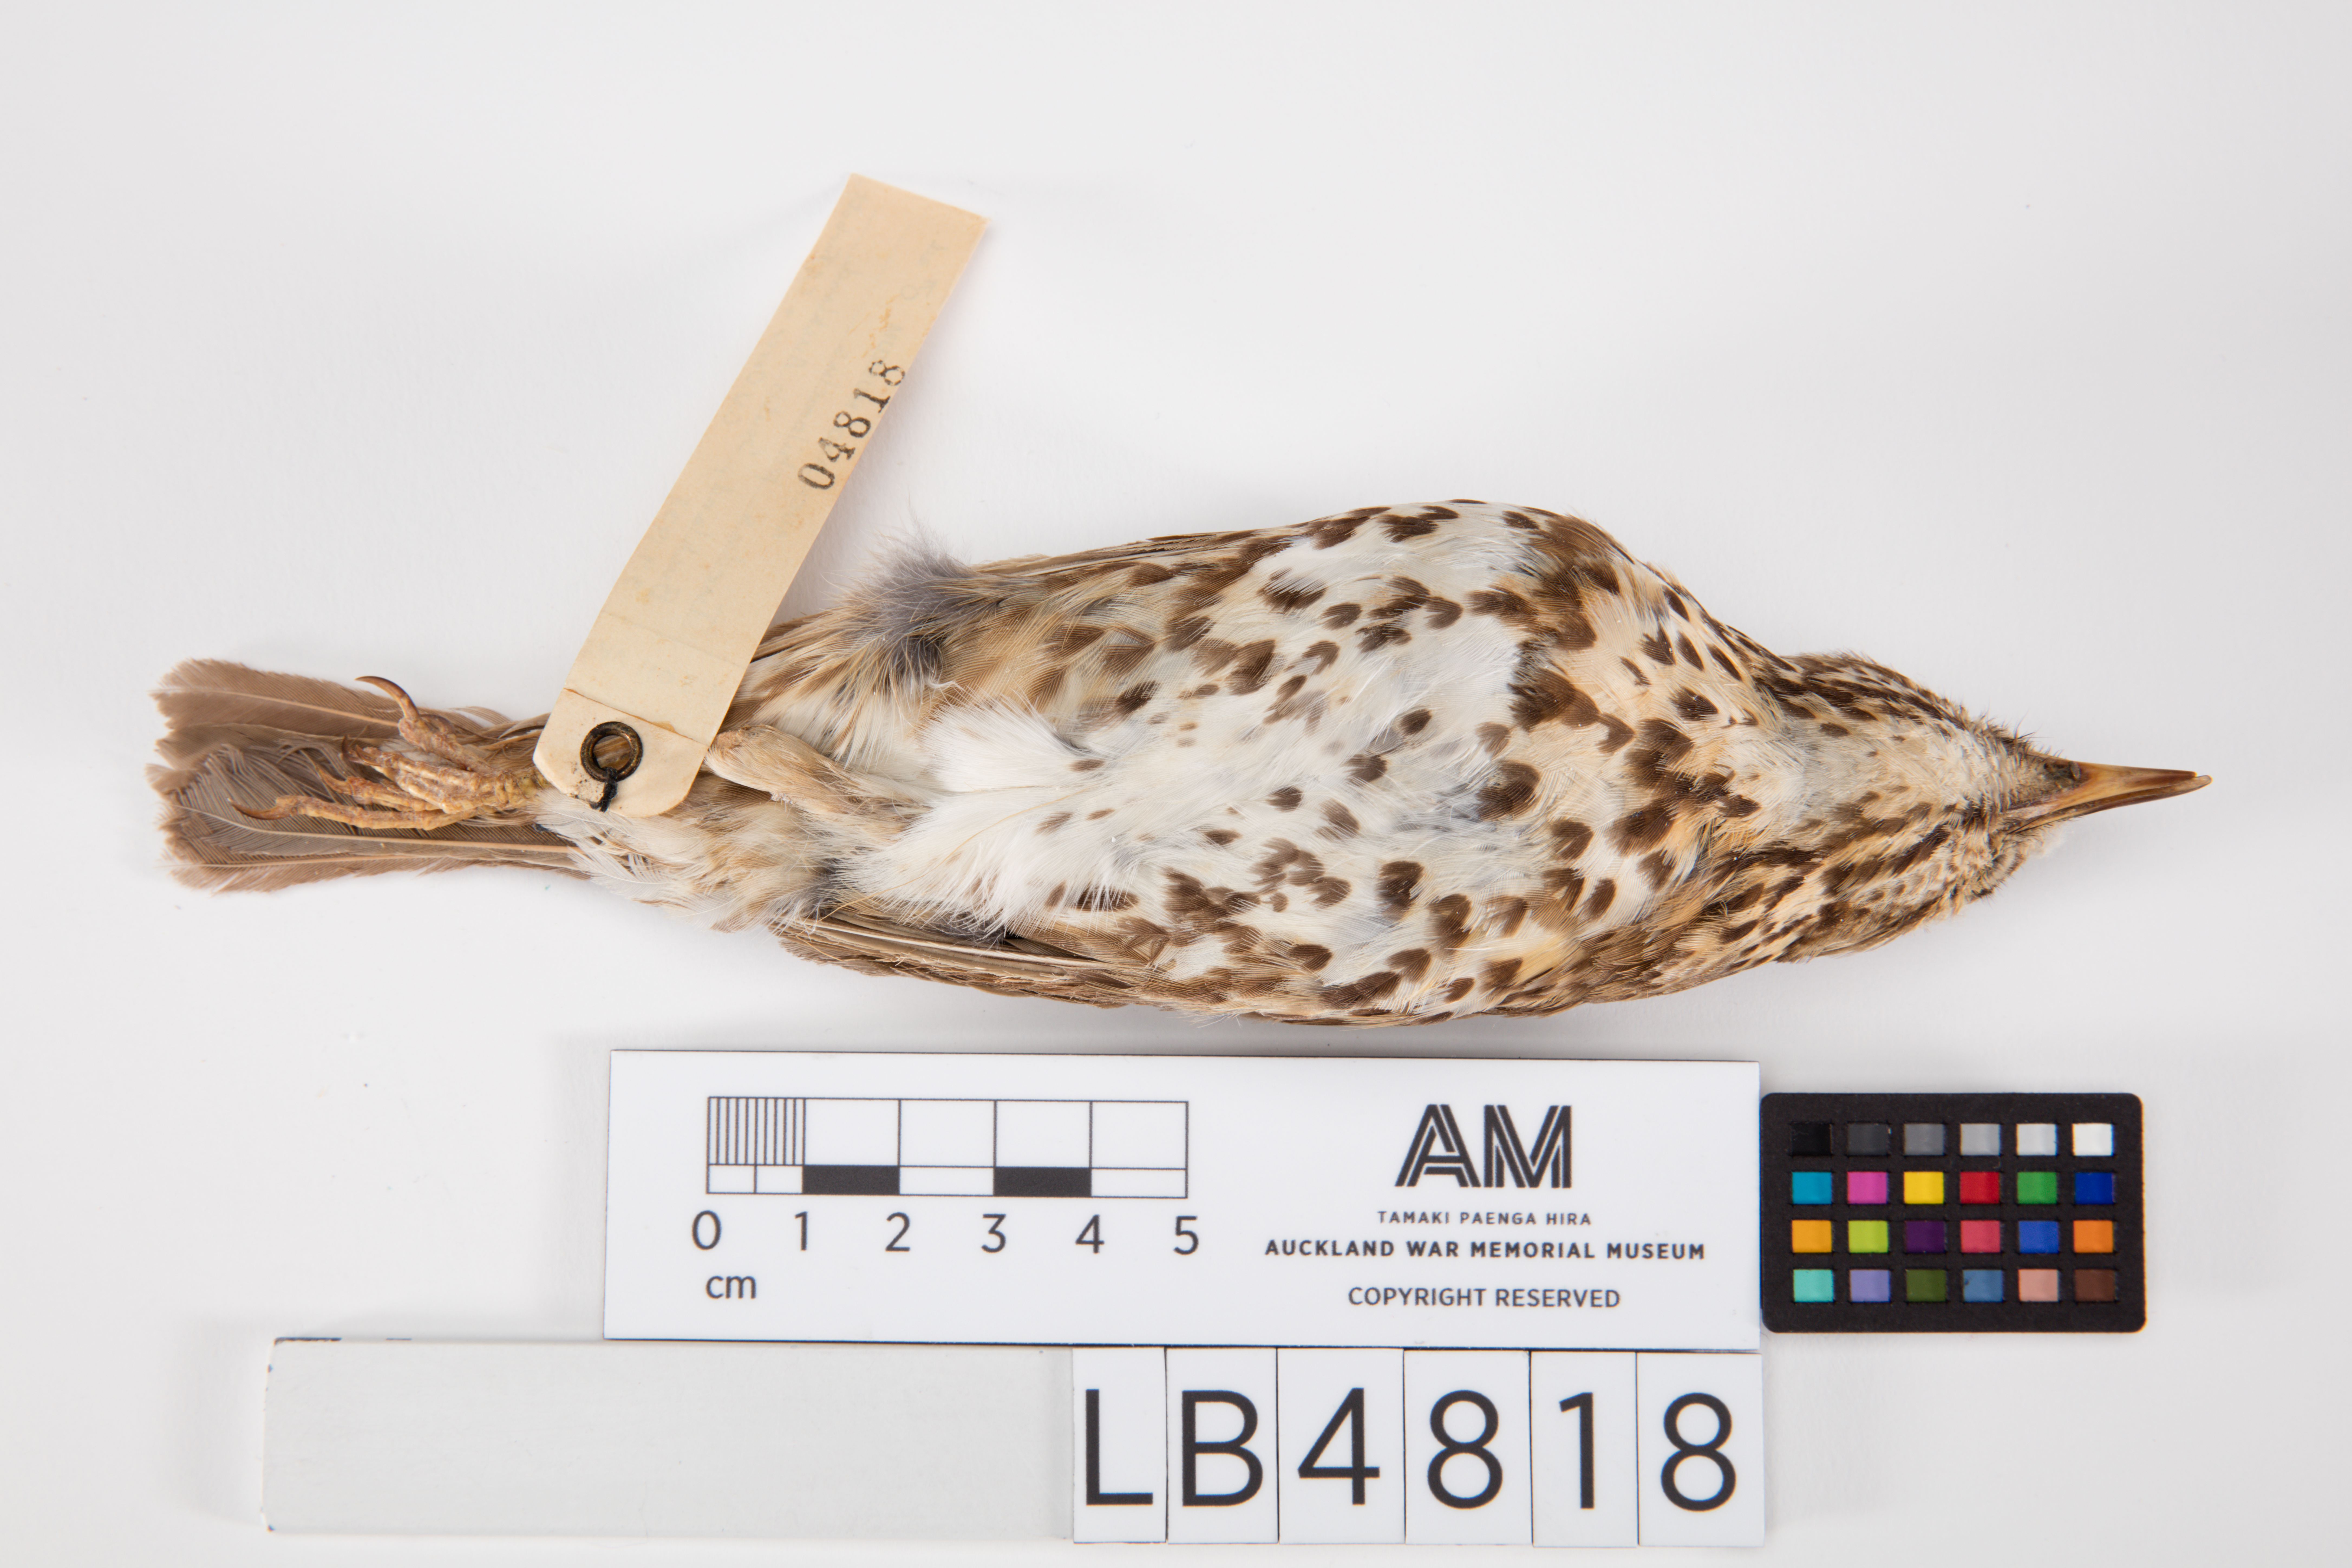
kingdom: Animalia
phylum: Chordata
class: Aves
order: Passeriformes
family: Turdidae
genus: Turdus
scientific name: Turdus philomelos
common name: Song thrush
